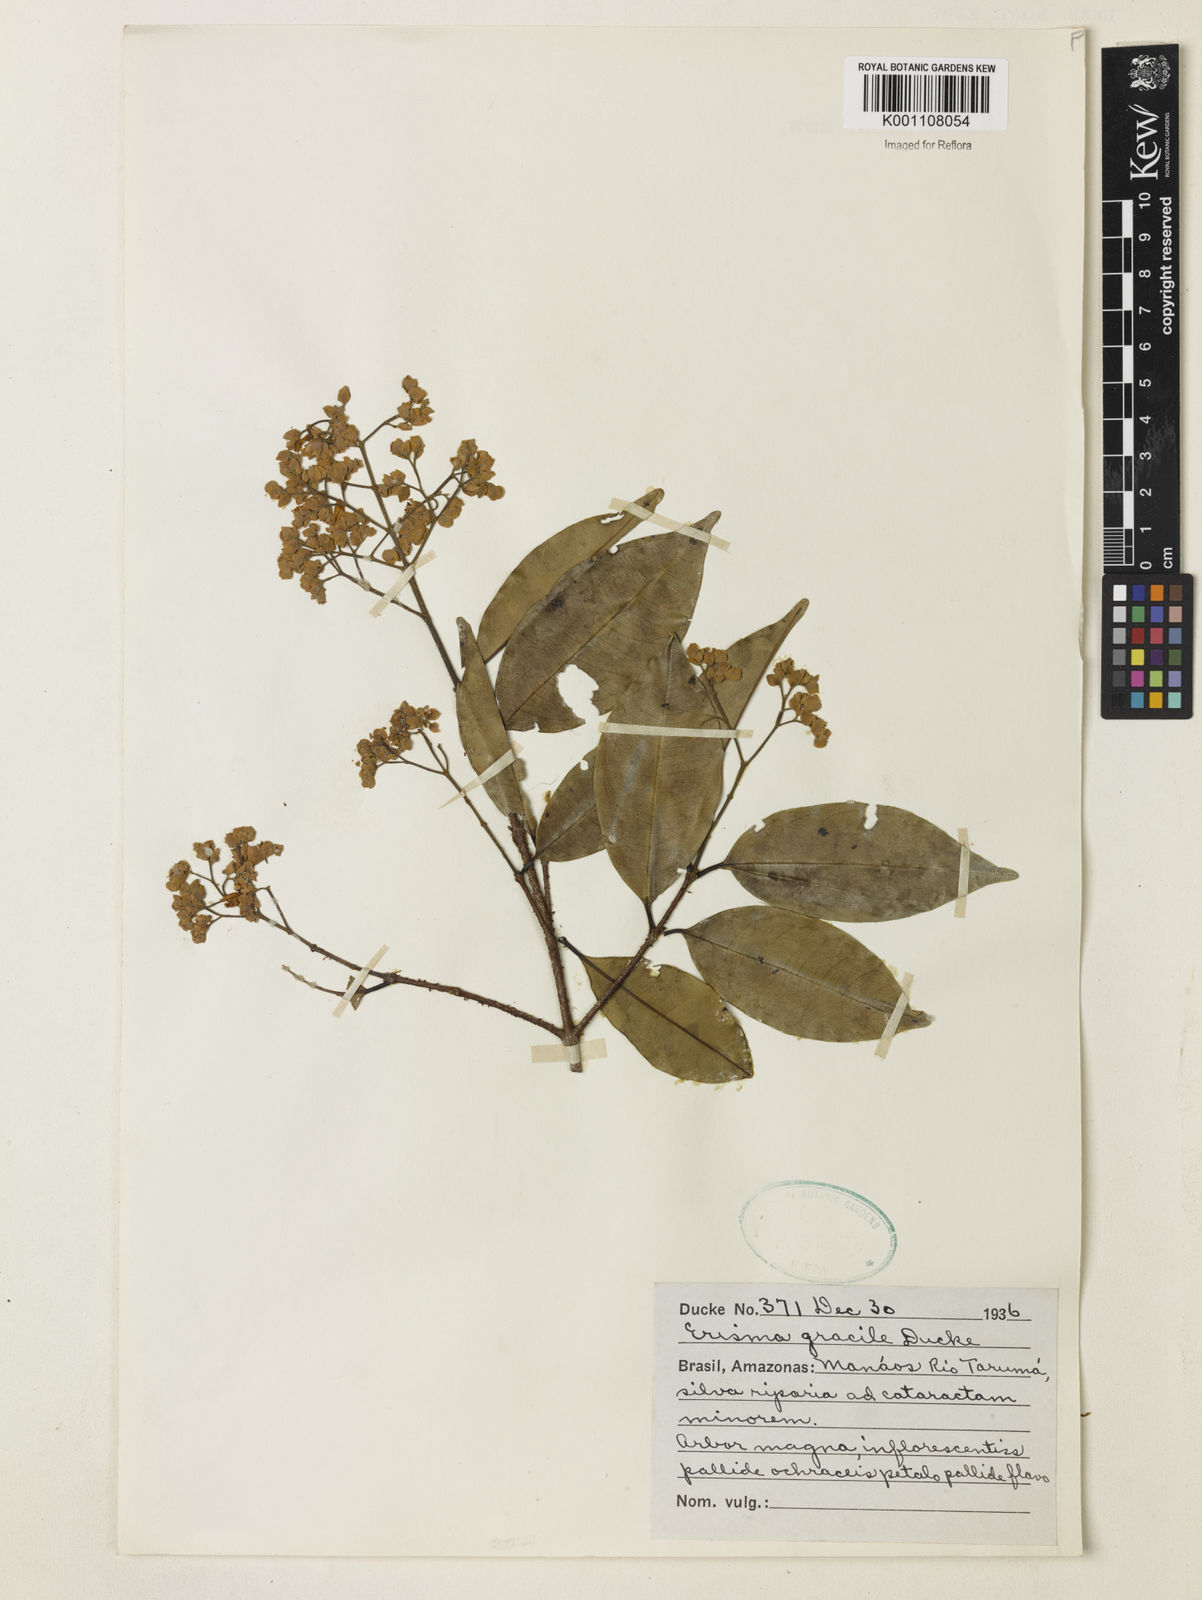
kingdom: Plantae
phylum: Tracheophyta
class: Magnoliopsida
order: Myrtales
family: Vochysiaceae
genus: Erisma
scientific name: Erisma gracile
